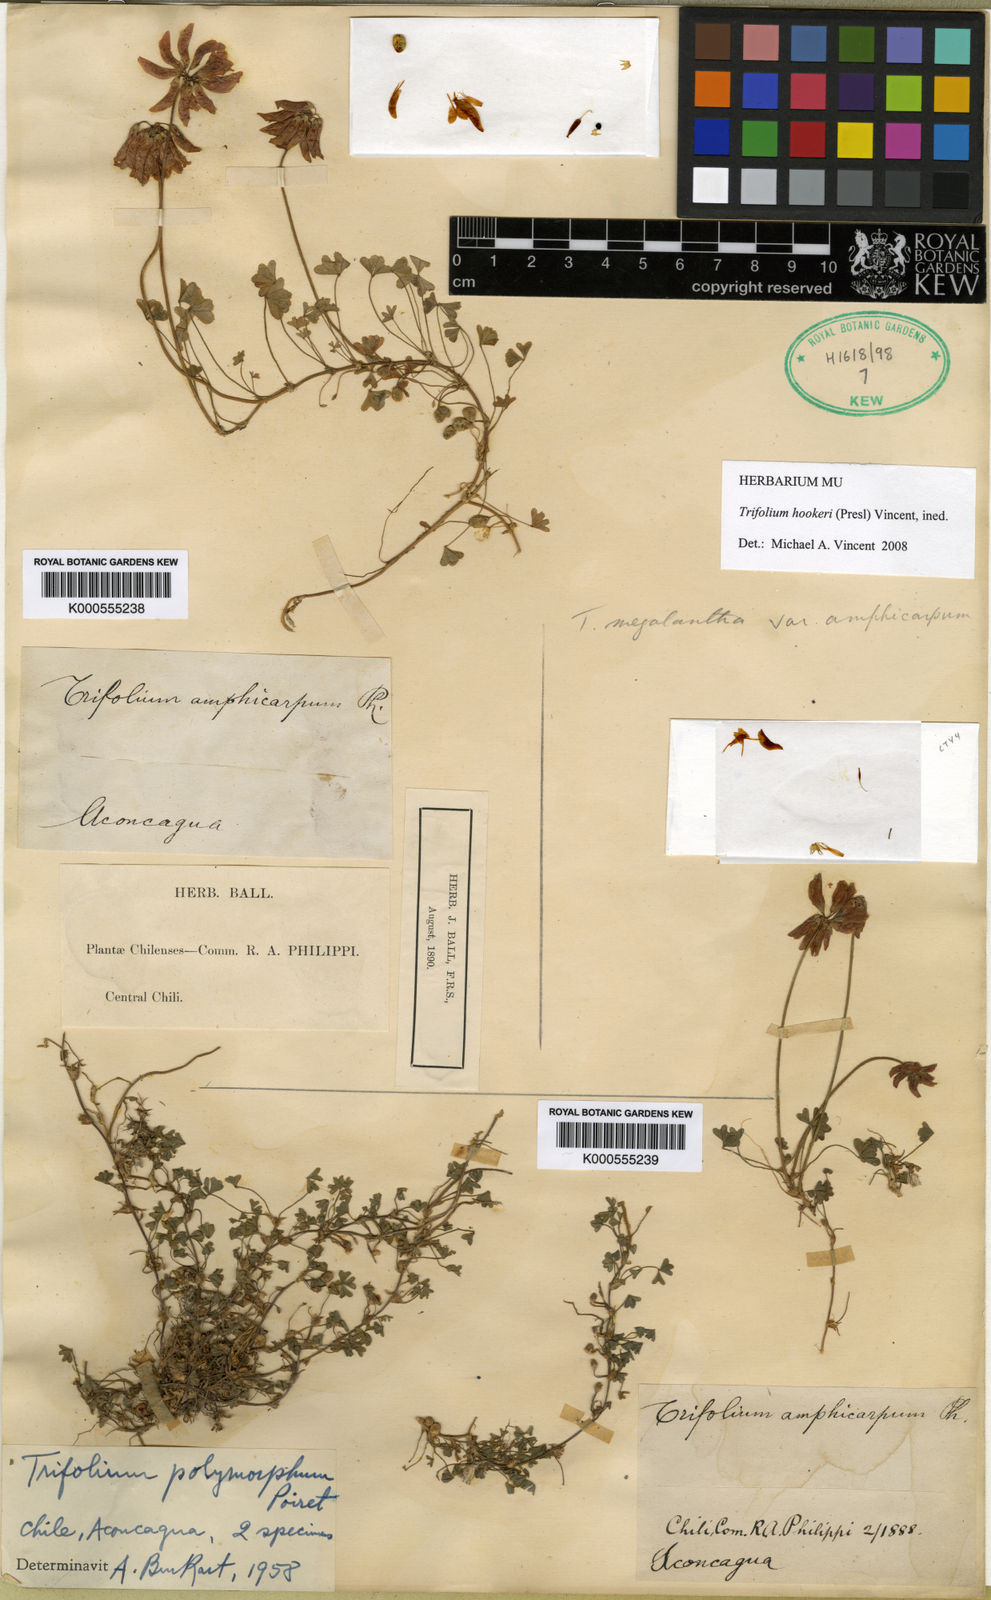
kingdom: Plantae
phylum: Tracheophyta
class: Magnoliopsida
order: Fabales
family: Fabaceae
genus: Trifolium
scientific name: Trifolium
